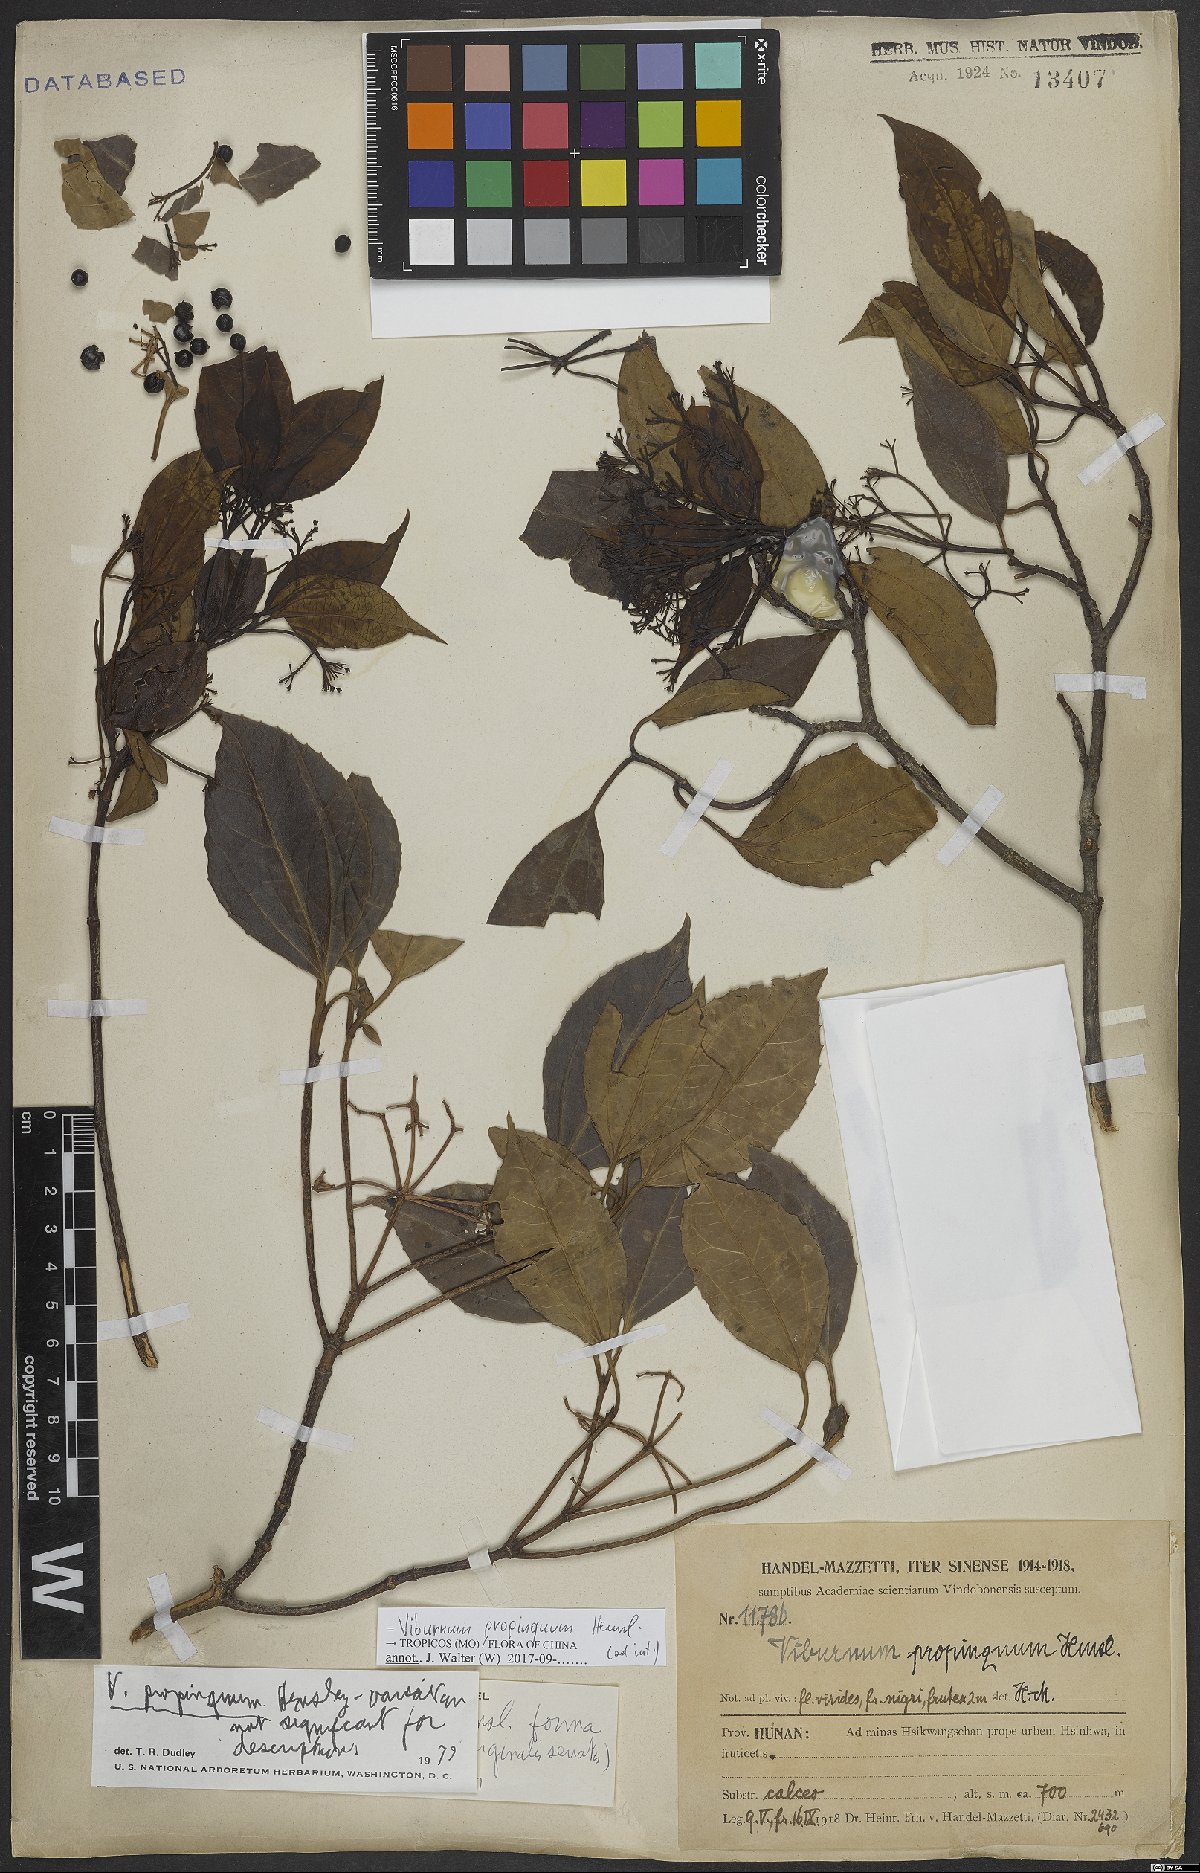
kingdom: Plantae
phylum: Tracheophyta
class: Magnoliopsida
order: Dipsacales
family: Viburnaceae
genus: Viburnum
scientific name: Viburnum propinquum
